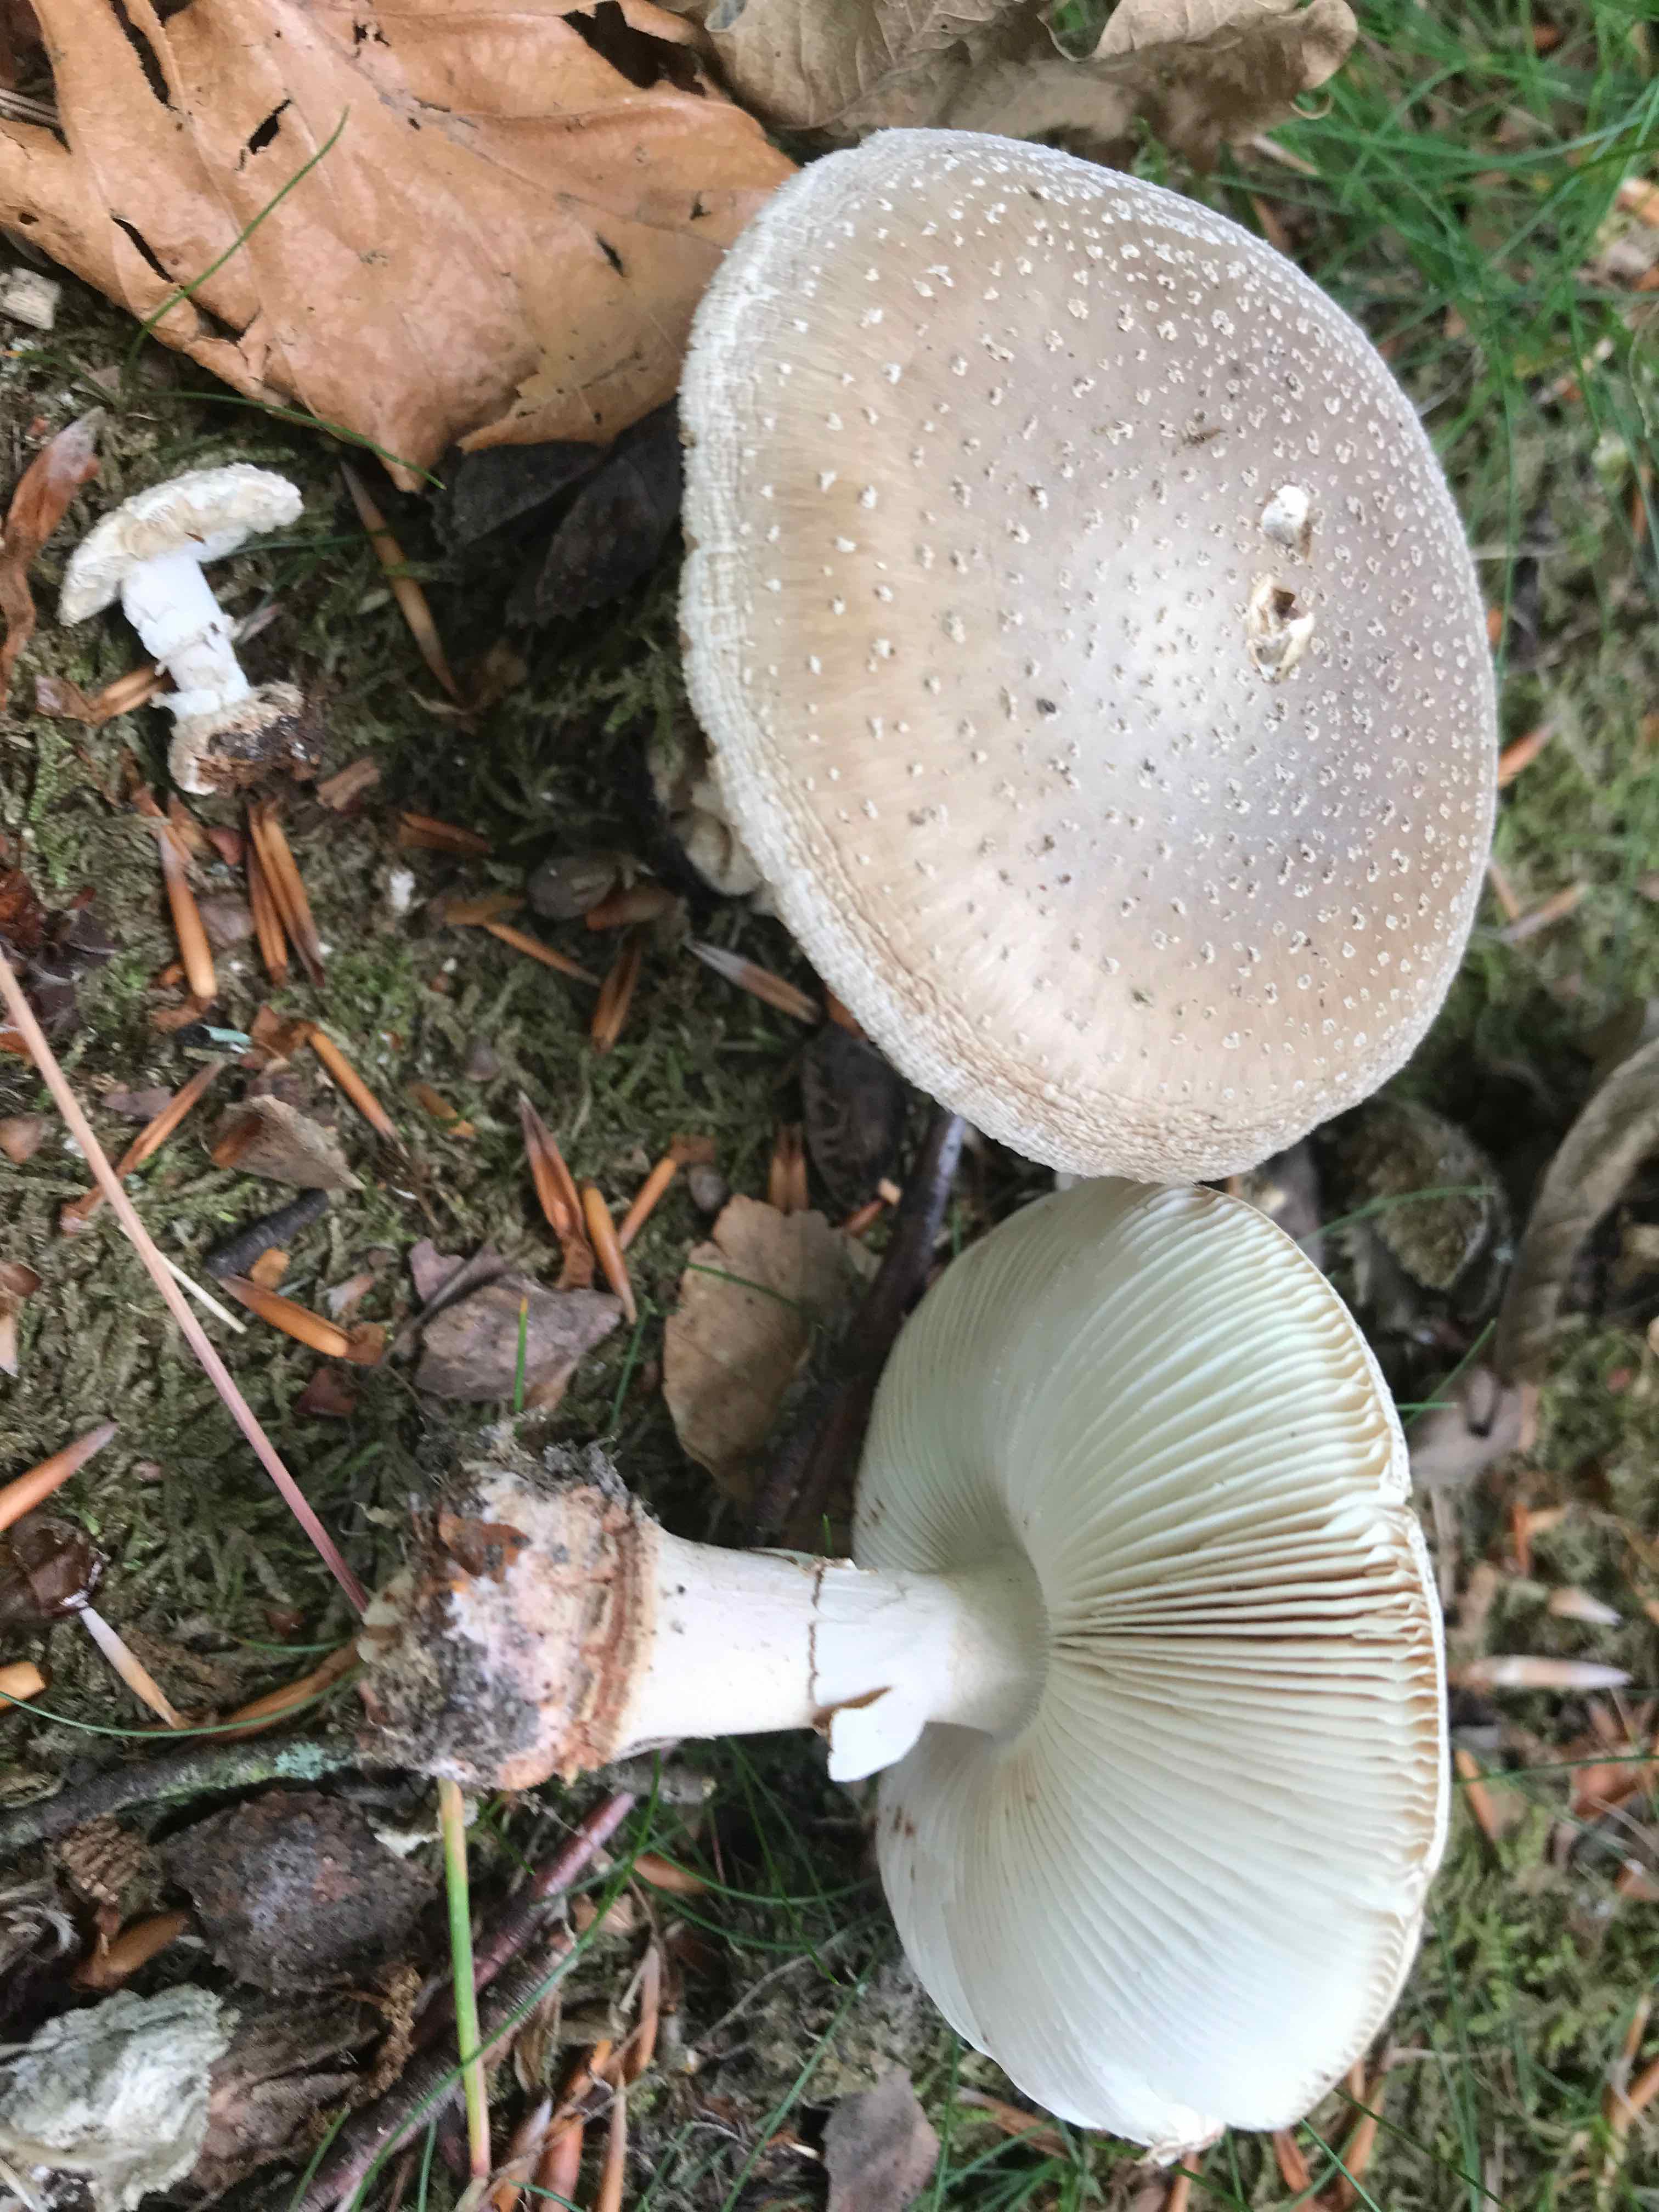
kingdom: Fungi
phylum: Basidiomycota
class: Agaricomycetes
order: Agaricales
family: Amanitaceae
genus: Amanita
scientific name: Amanita rubescens
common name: rødmende fluesvamp
